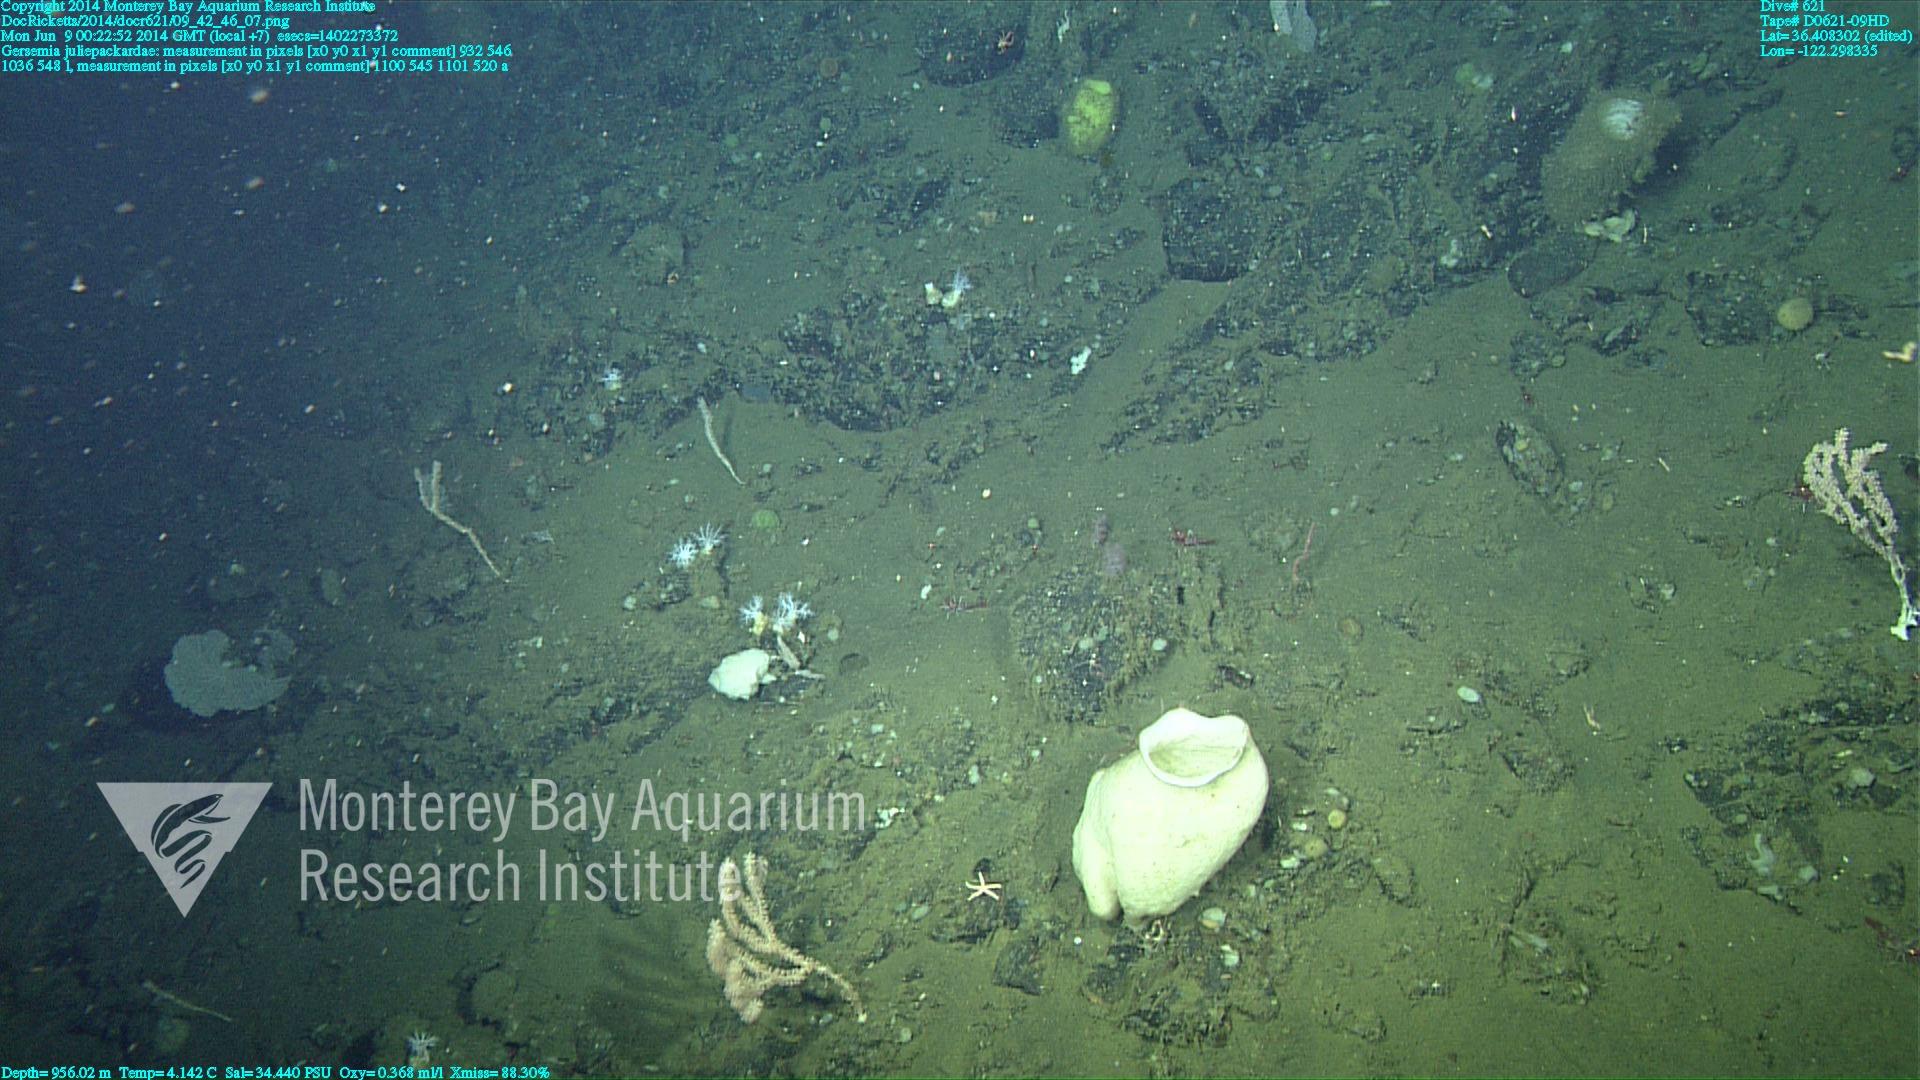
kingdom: Animalia
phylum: Cnidaria
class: Anthozoa
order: Malacalcyonacea
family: Alcyoniidae
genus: Gersemia
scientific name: Gersemia juliepackardae
